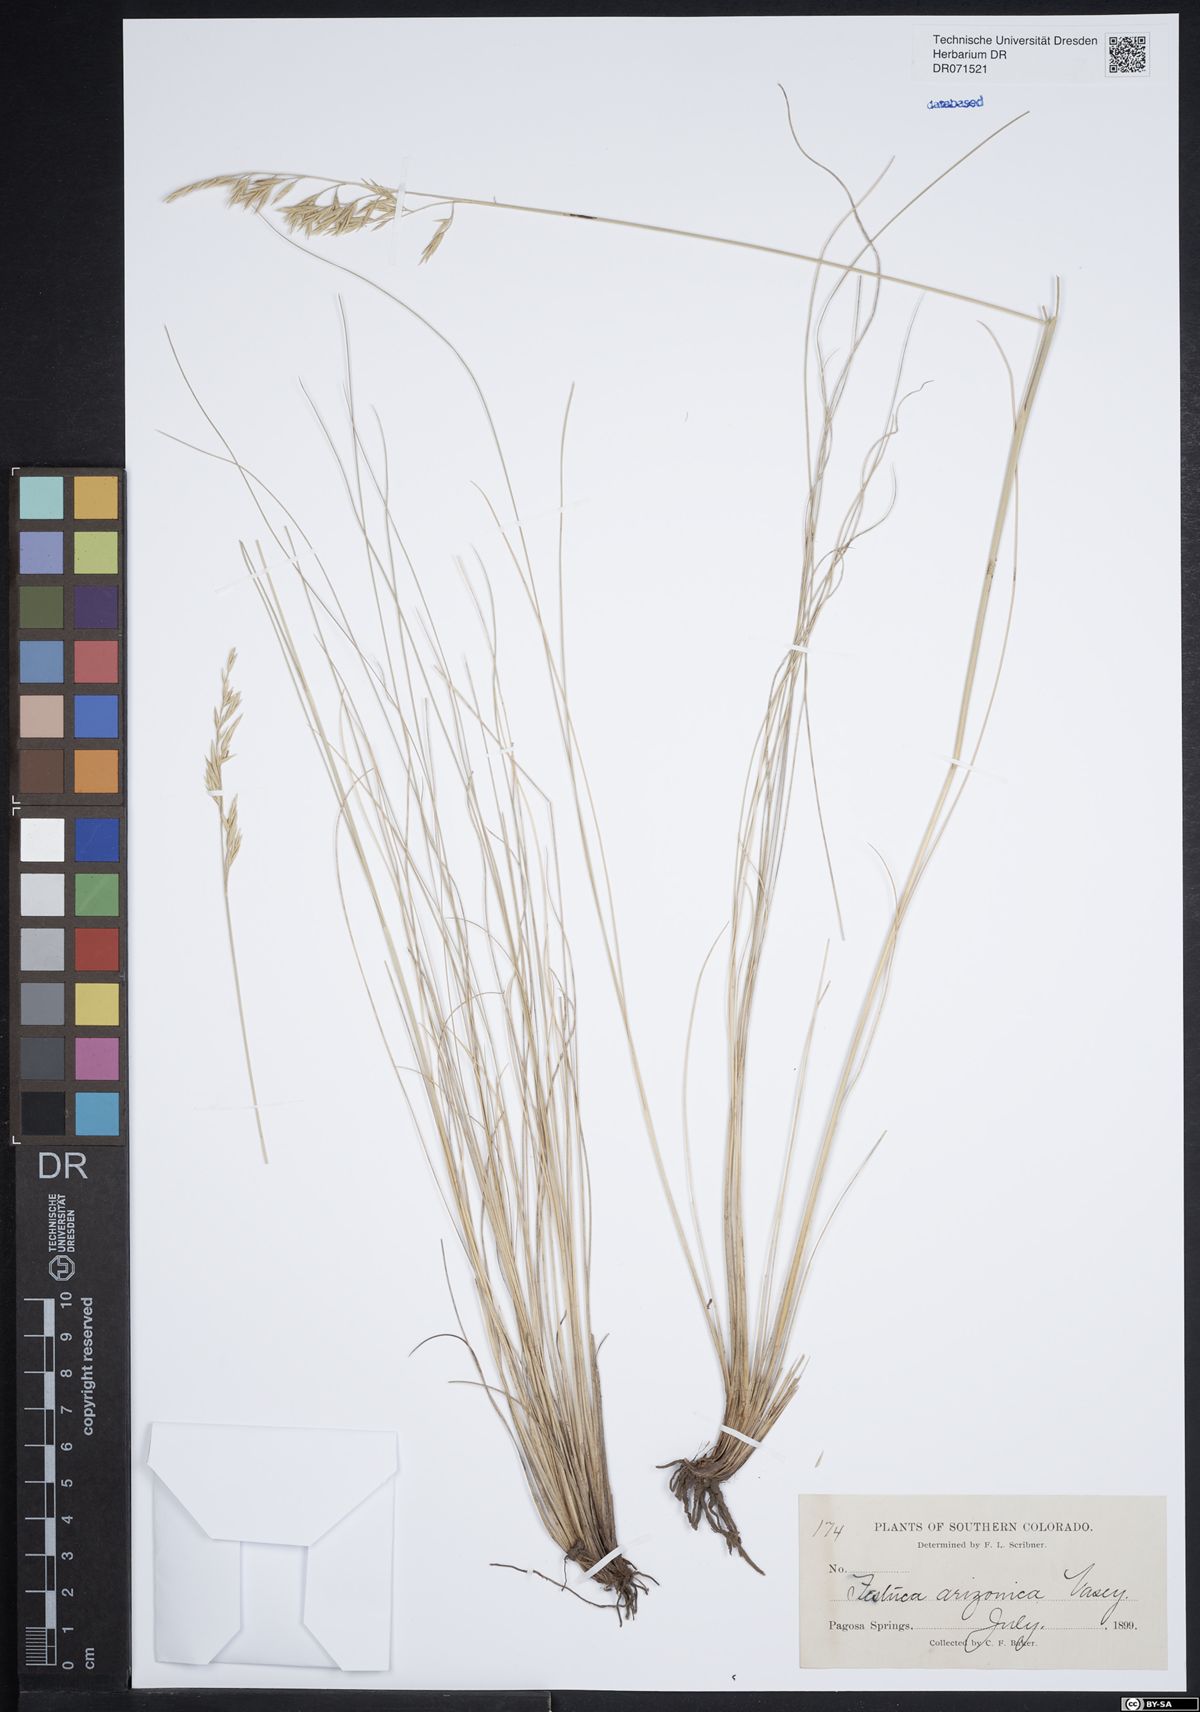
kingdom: Plantae
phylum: Tracheophyta
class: Liliopsida
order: Poales
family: Poaceae
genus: Festuca
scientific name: Festuca arizonica
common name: Pinegrass
